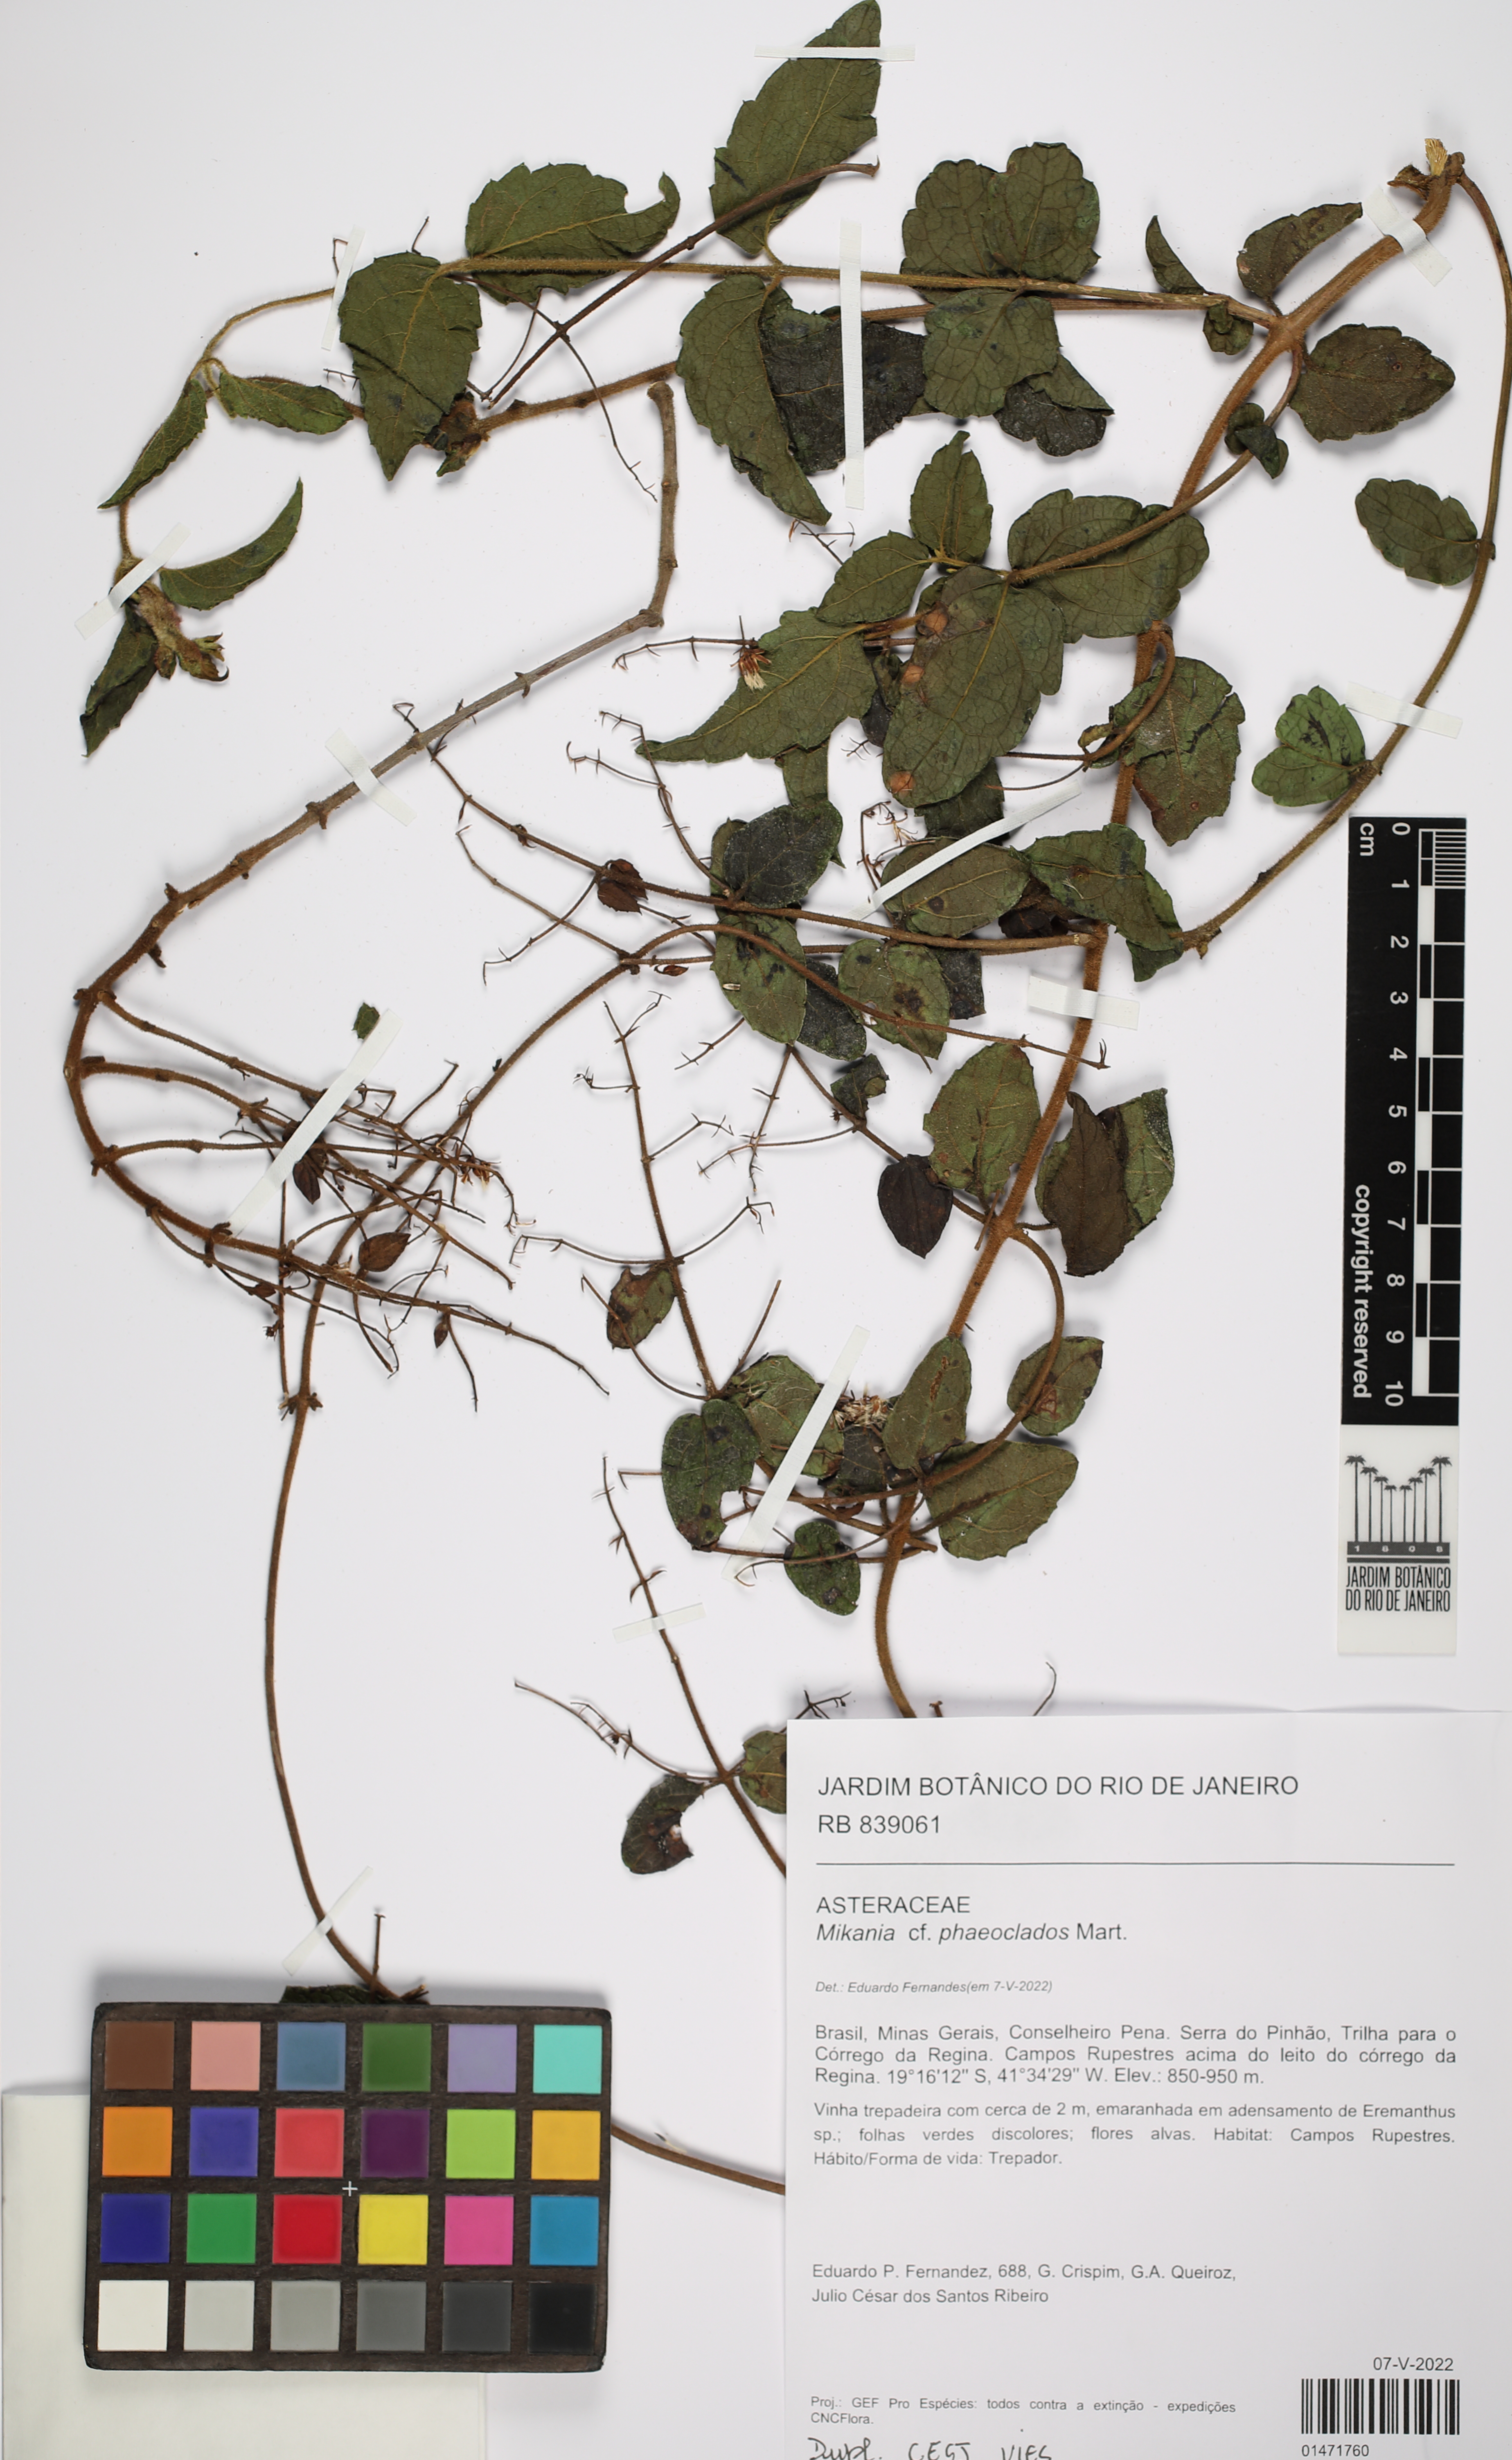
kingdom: Plantae
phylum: Tracheophyta
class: Magnoliopsida
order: Asterales
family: Asteraceae
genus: Mikania
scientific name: Mikania phaeoclados
